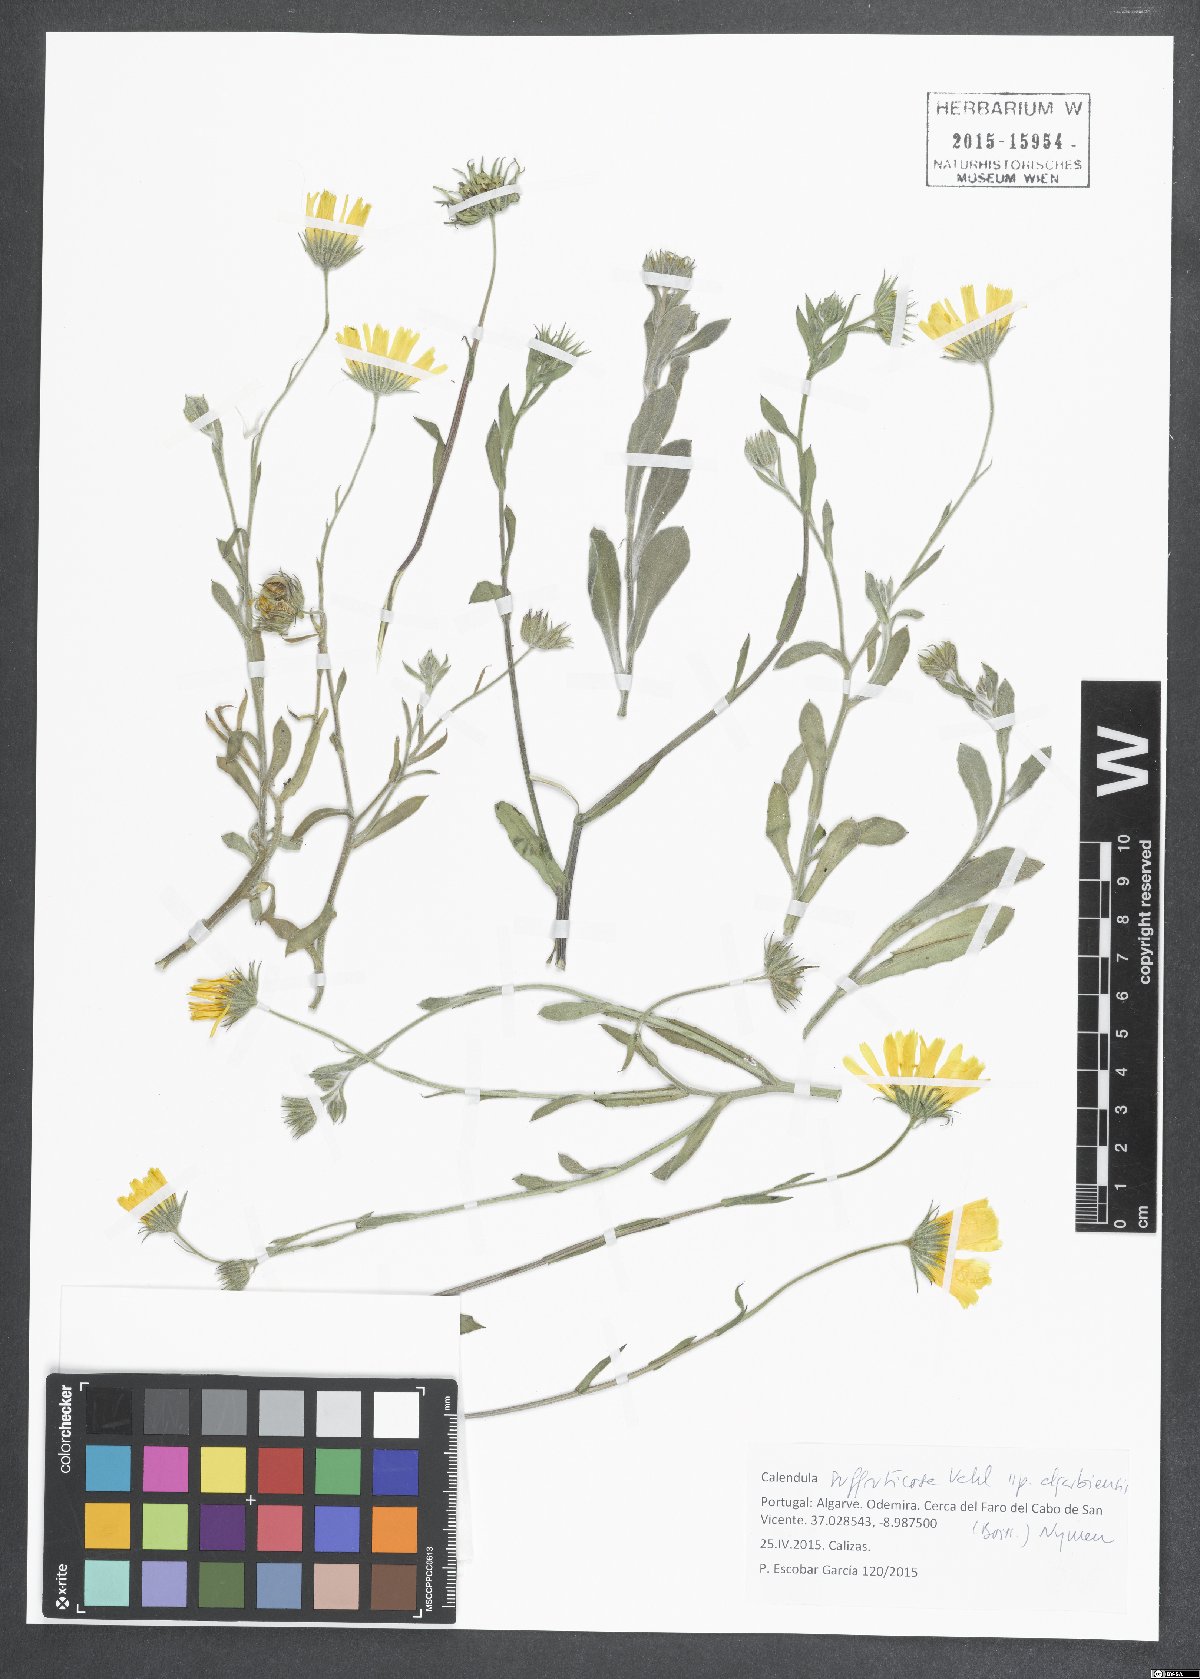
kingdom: Plantae
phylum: Tracheophyta
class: Magnoliopsida
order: Asterales
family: Asteraceae
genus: Calendula
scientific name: Calendula suffruticosa
